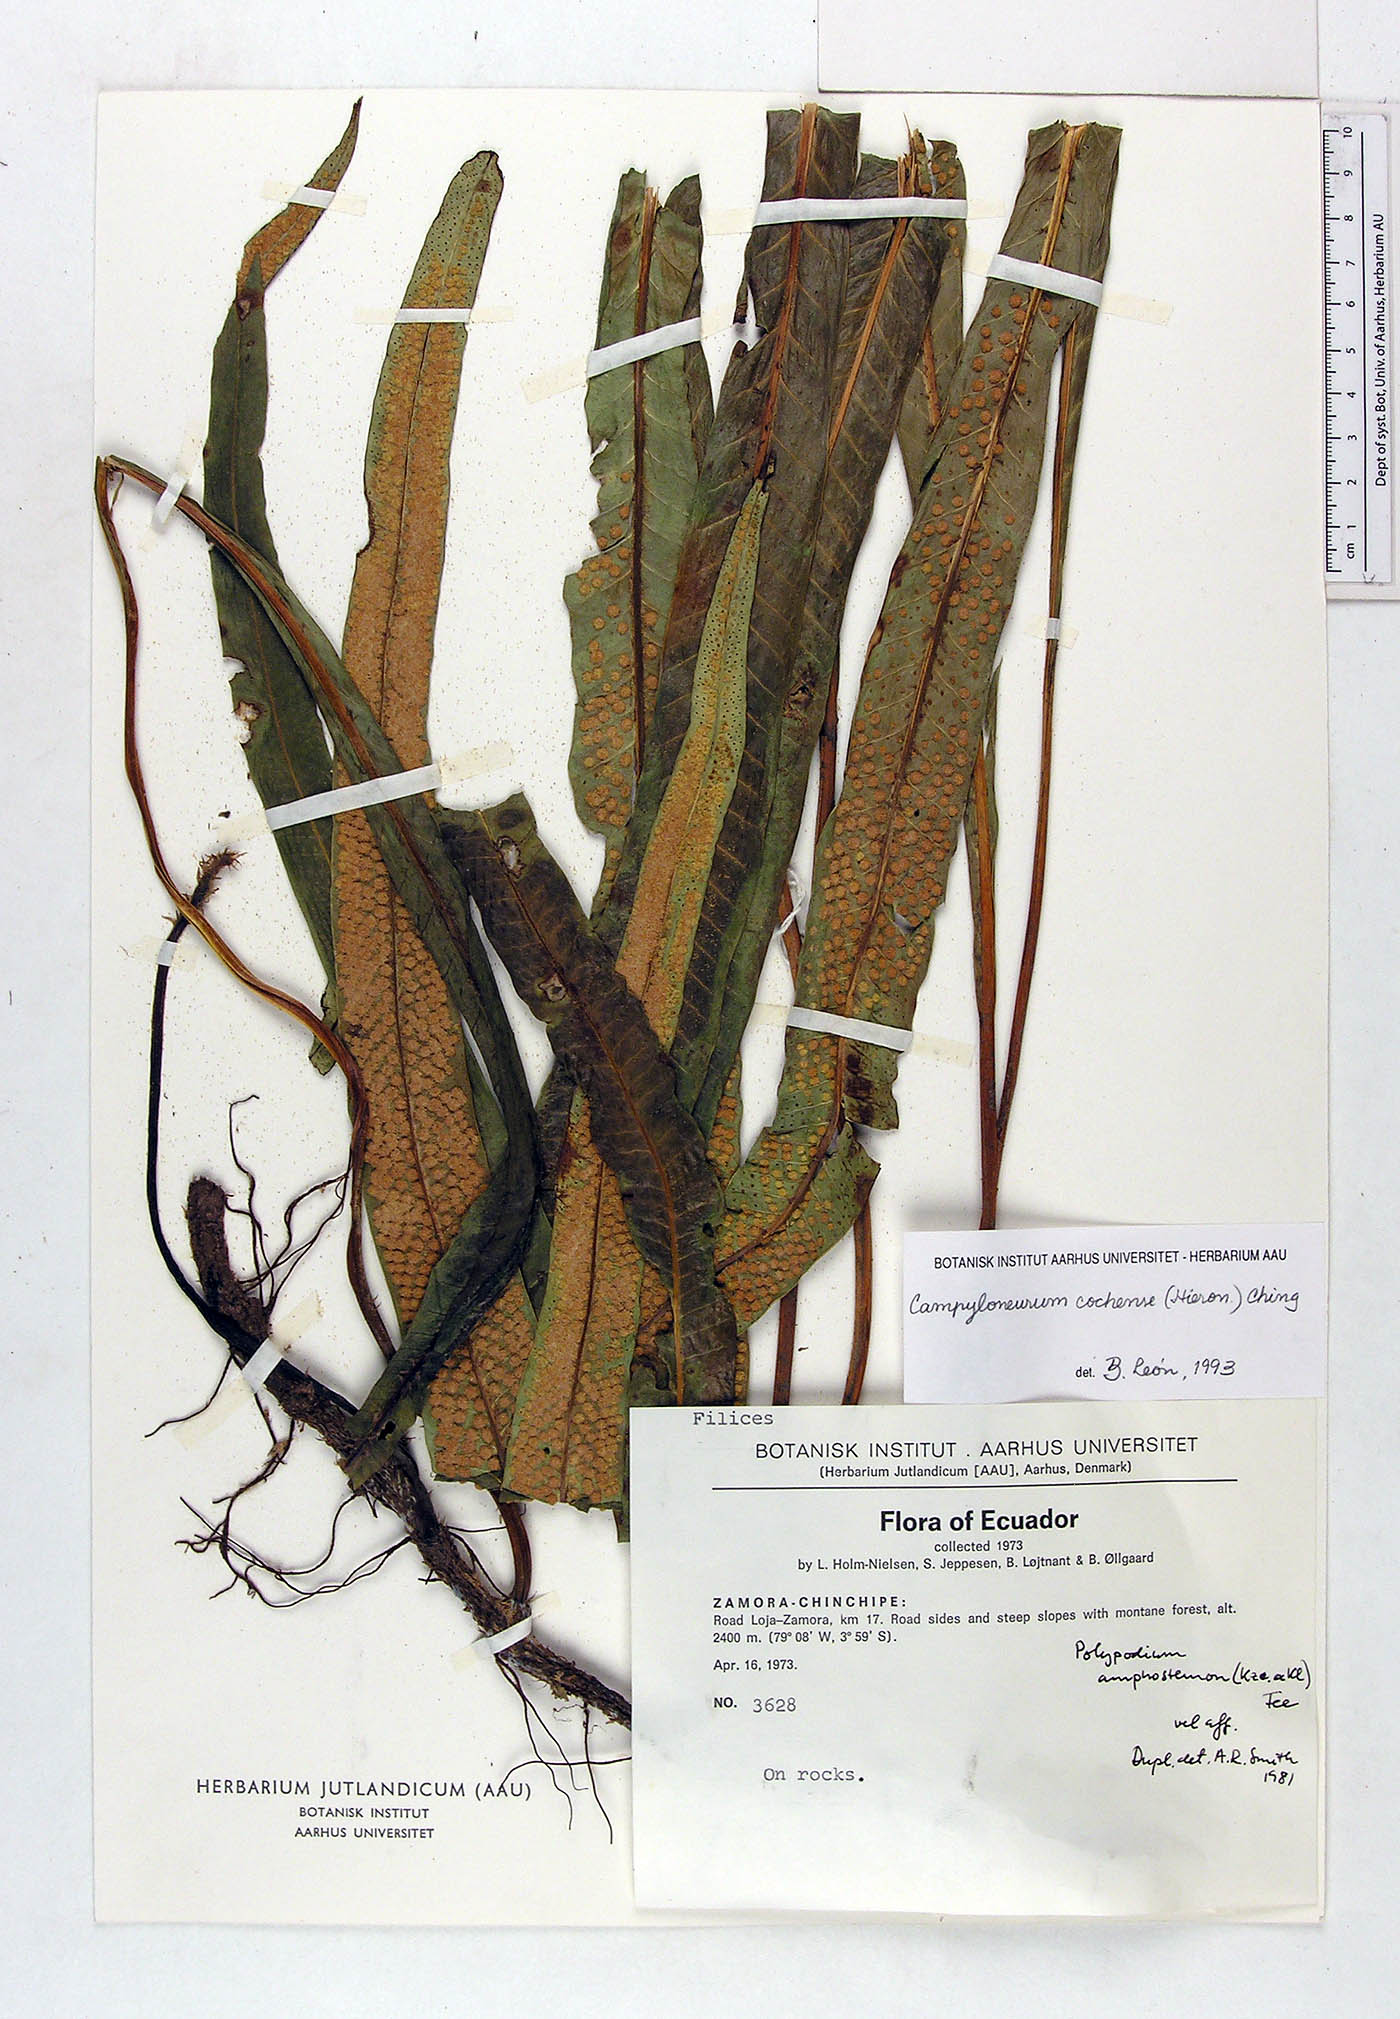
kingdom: Plantae
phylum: Tracheophyta
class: Polypodiopsida
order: Polypodiales
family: Polypodiaceae
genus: Campyloneurum
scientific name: Campyloneurum cochense
